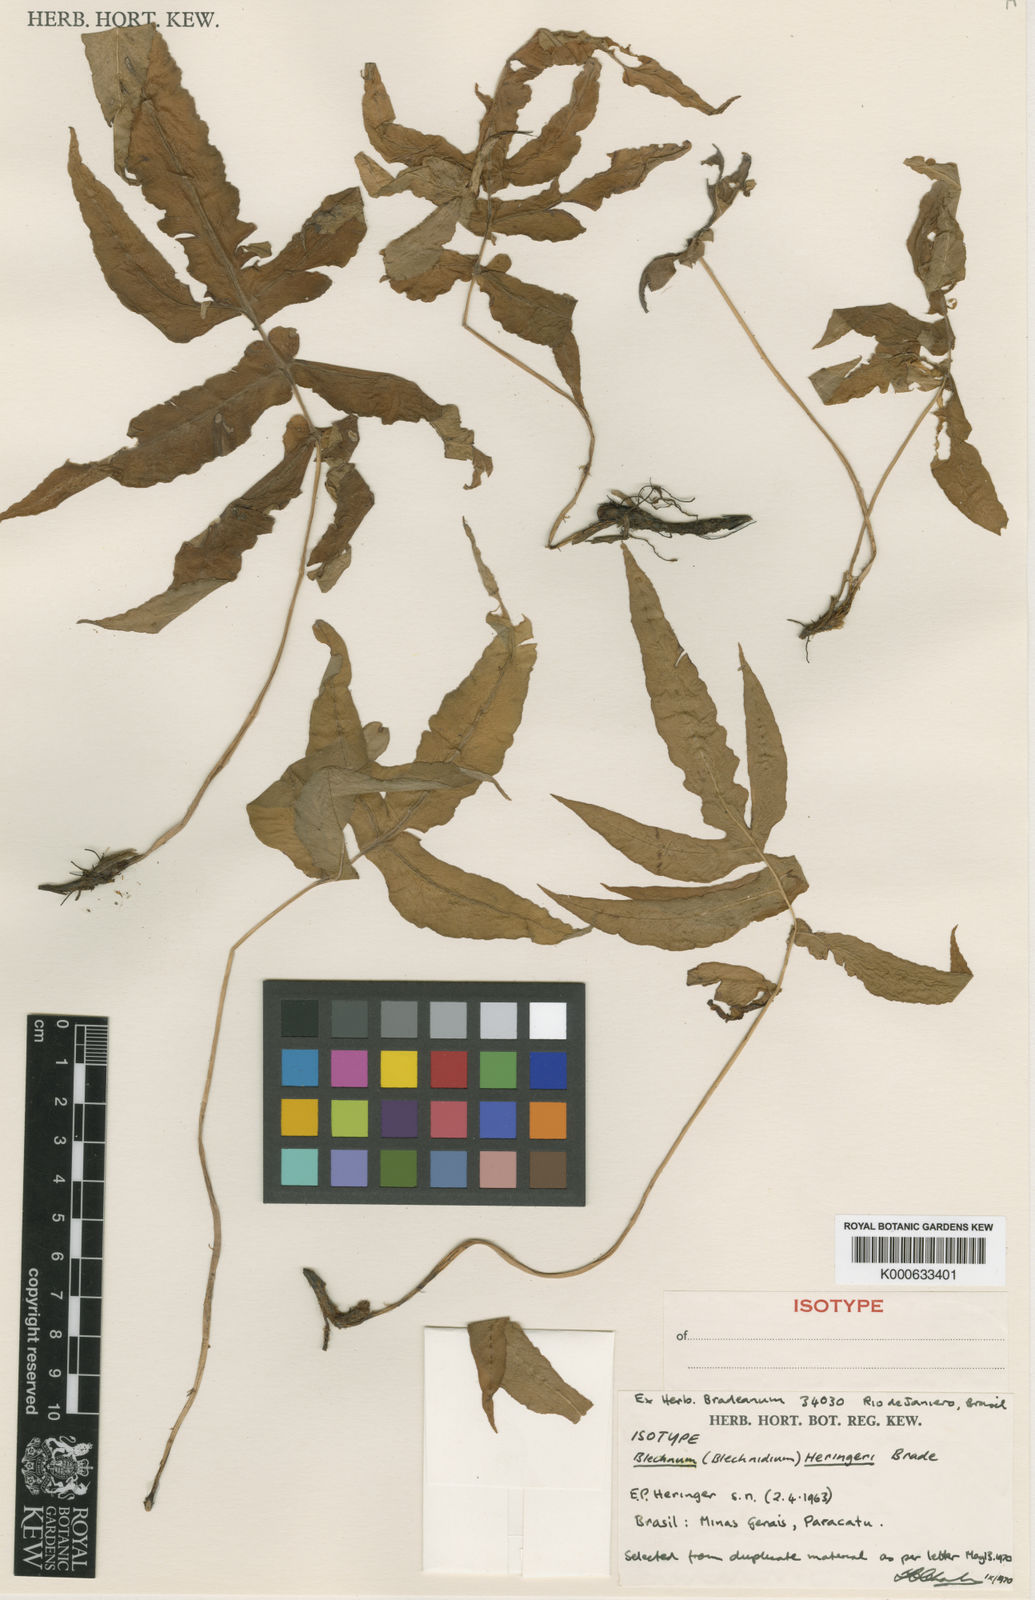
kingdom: Plantae
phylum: Tracheophyta
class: Polypodiopsida
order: Polypodiales
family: Blechnaceae
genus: Blechnum
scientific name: Blechnum heringeri
